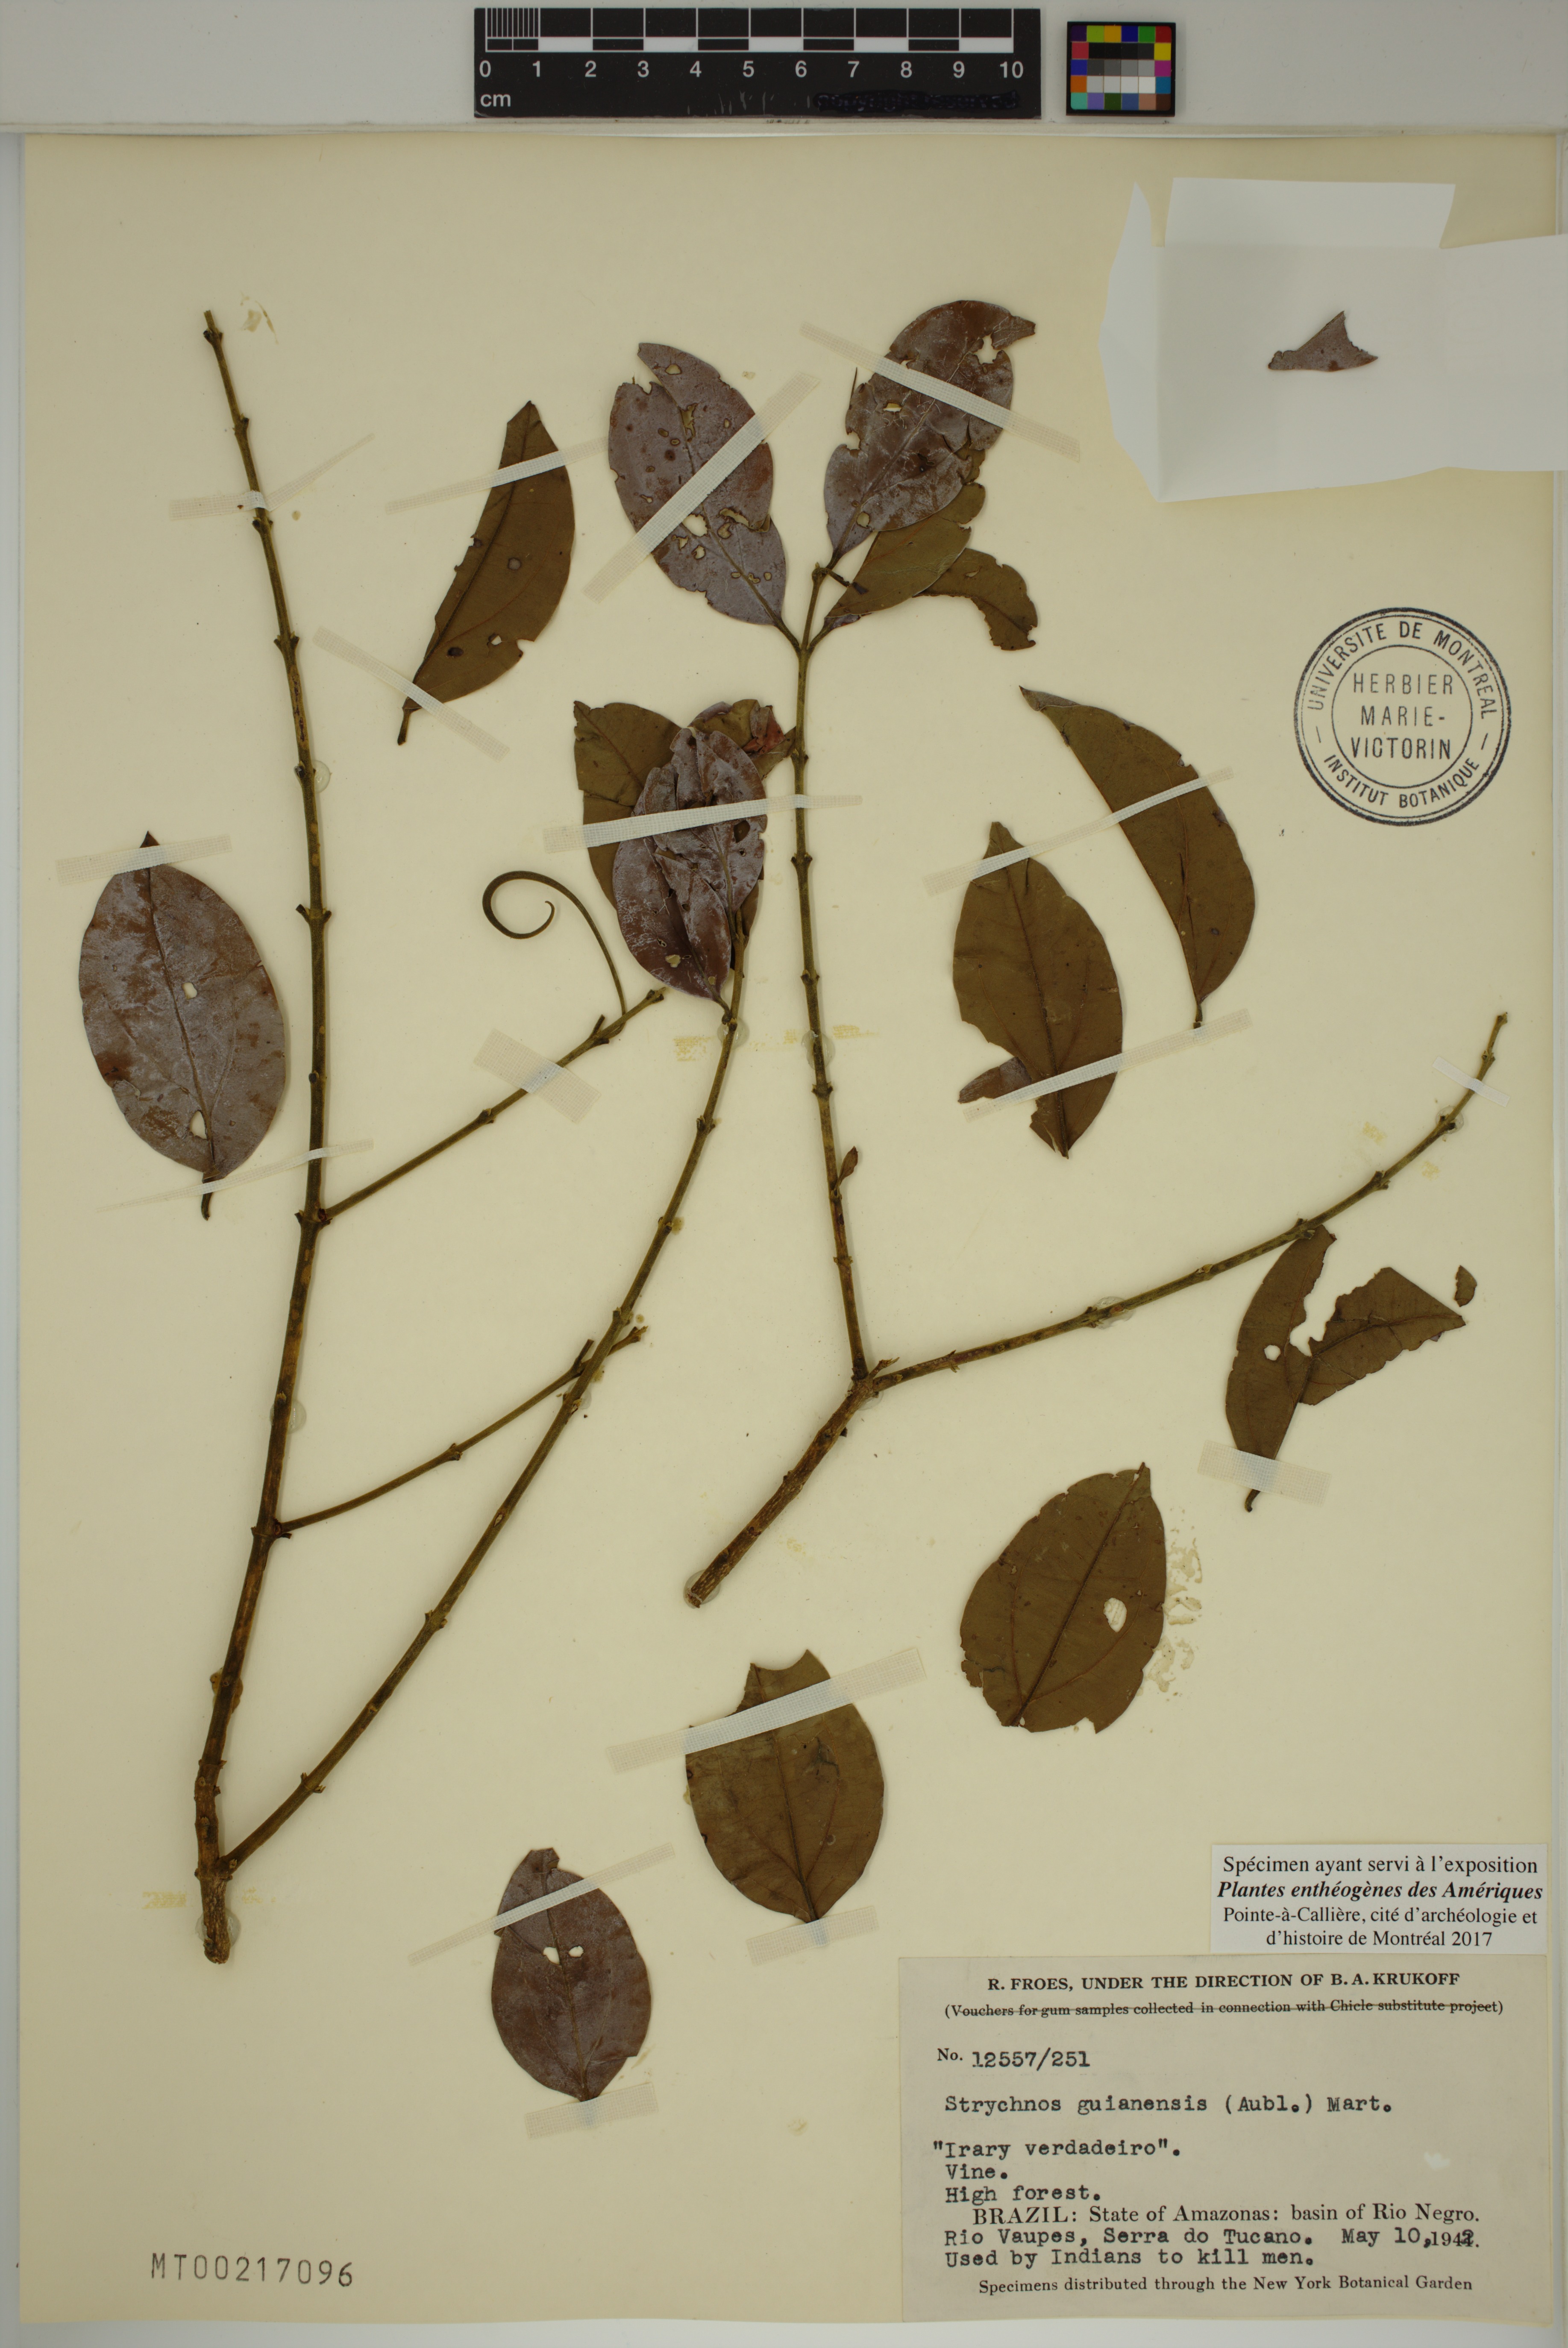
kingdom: Plantae
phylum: Tracheophyta
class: Magnoliopsida
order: Gentianales
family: Loganiaceae
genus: Strychnos
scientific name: Strychnos guianensis
